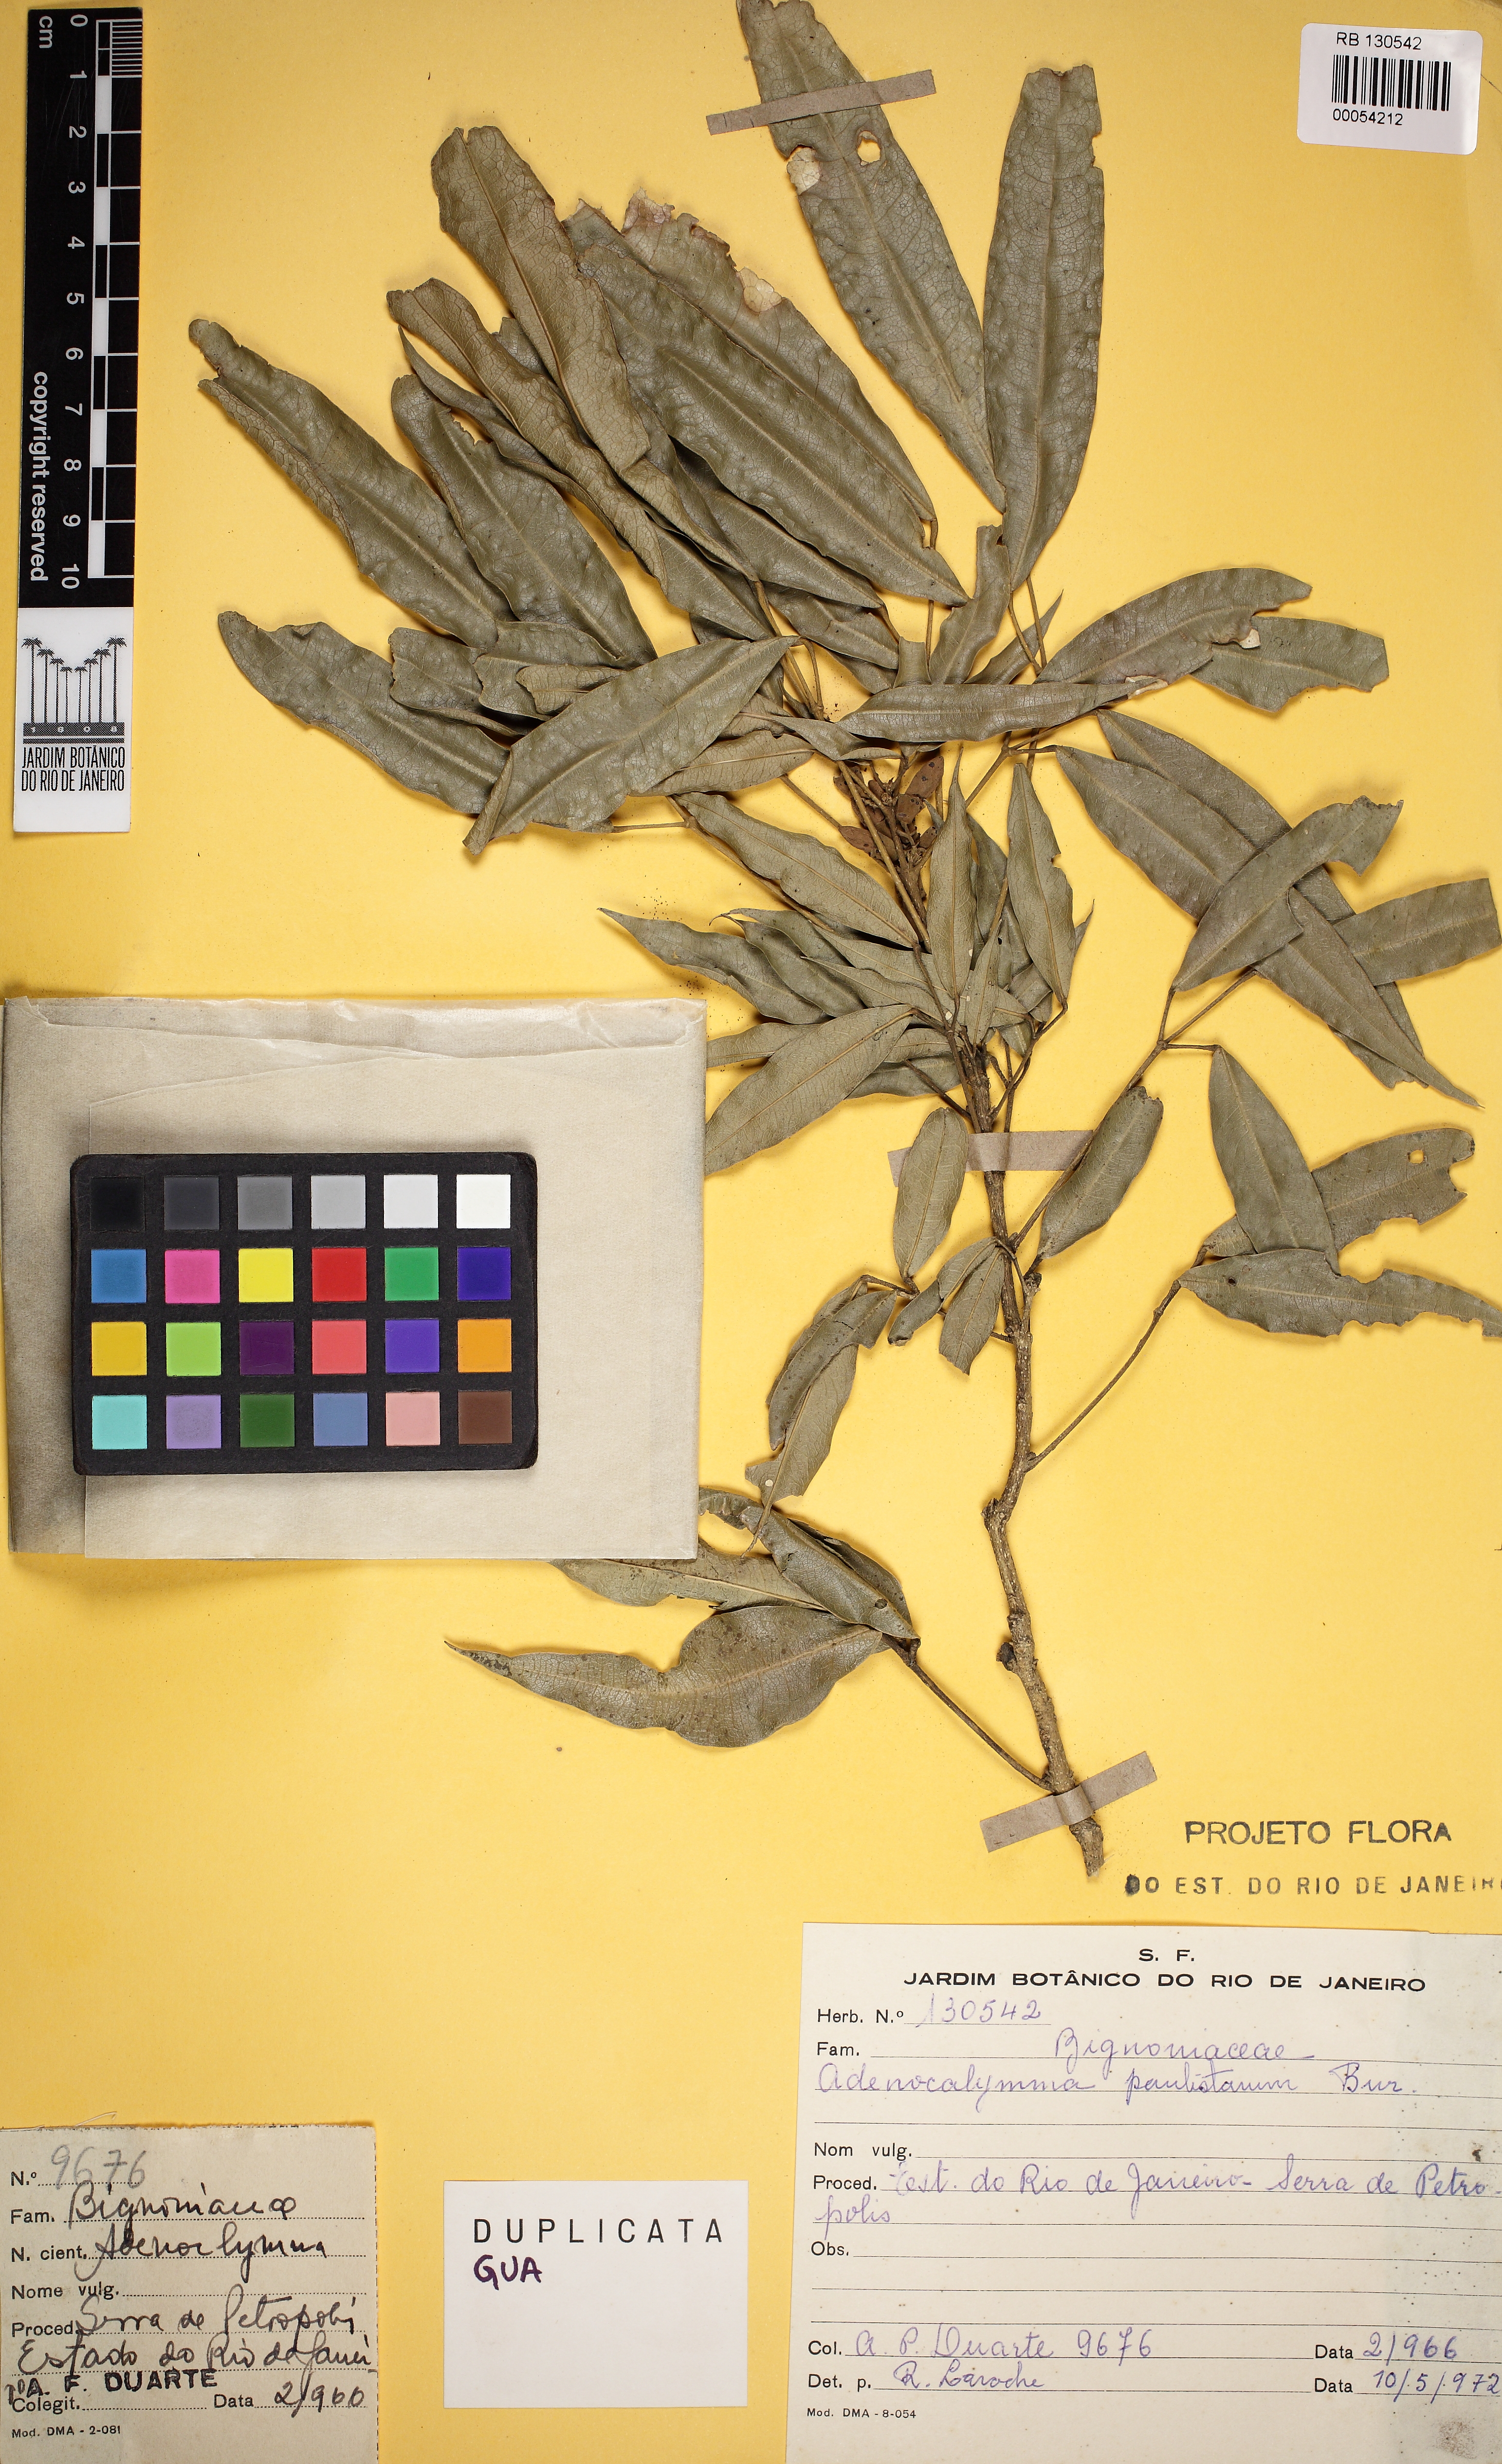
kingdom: Plantae
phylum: Tracheophyta
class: Magnoliopsida
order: Lamiales
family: Bignoniaceae
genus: Adenocalymma
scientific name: Adenocalymma trifoliatum
